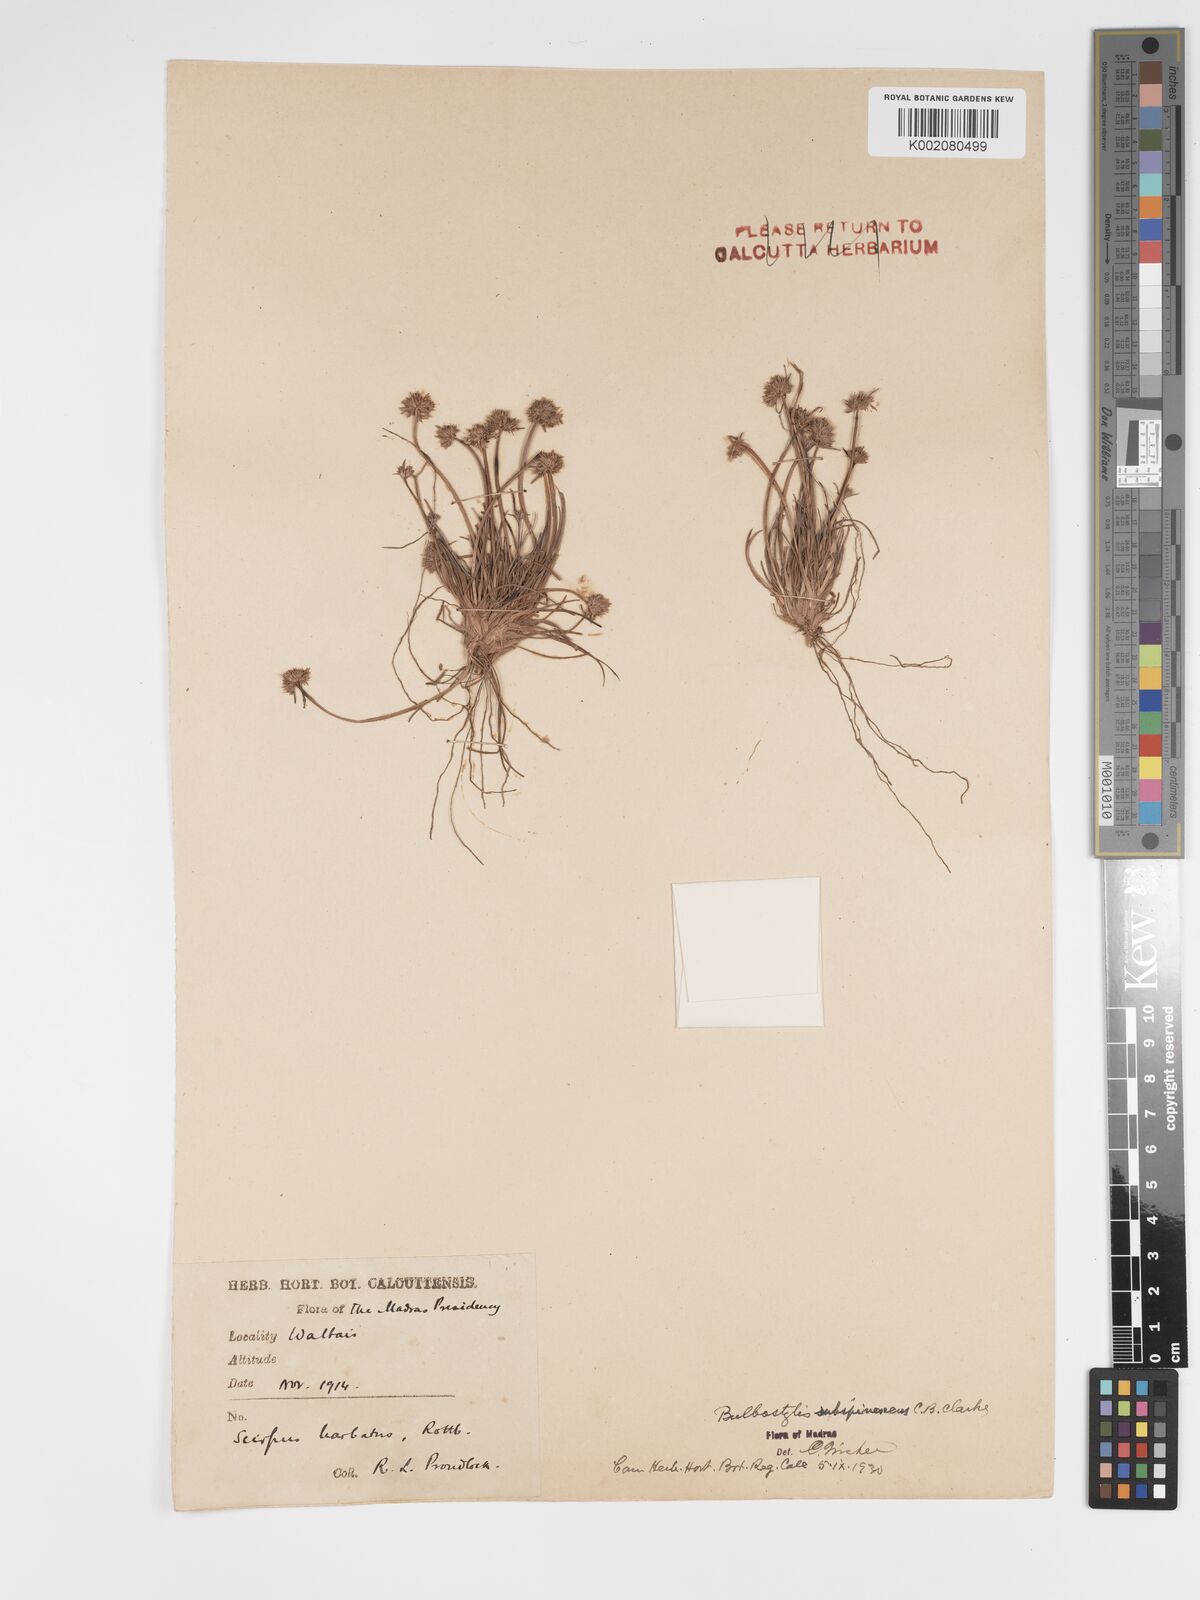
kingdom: Plantae
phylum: Tracheophyta
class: Liliopsida
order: Poales
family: Cyperaceae
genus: Bulbostylis
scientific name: Bulbostylis subspinescens
